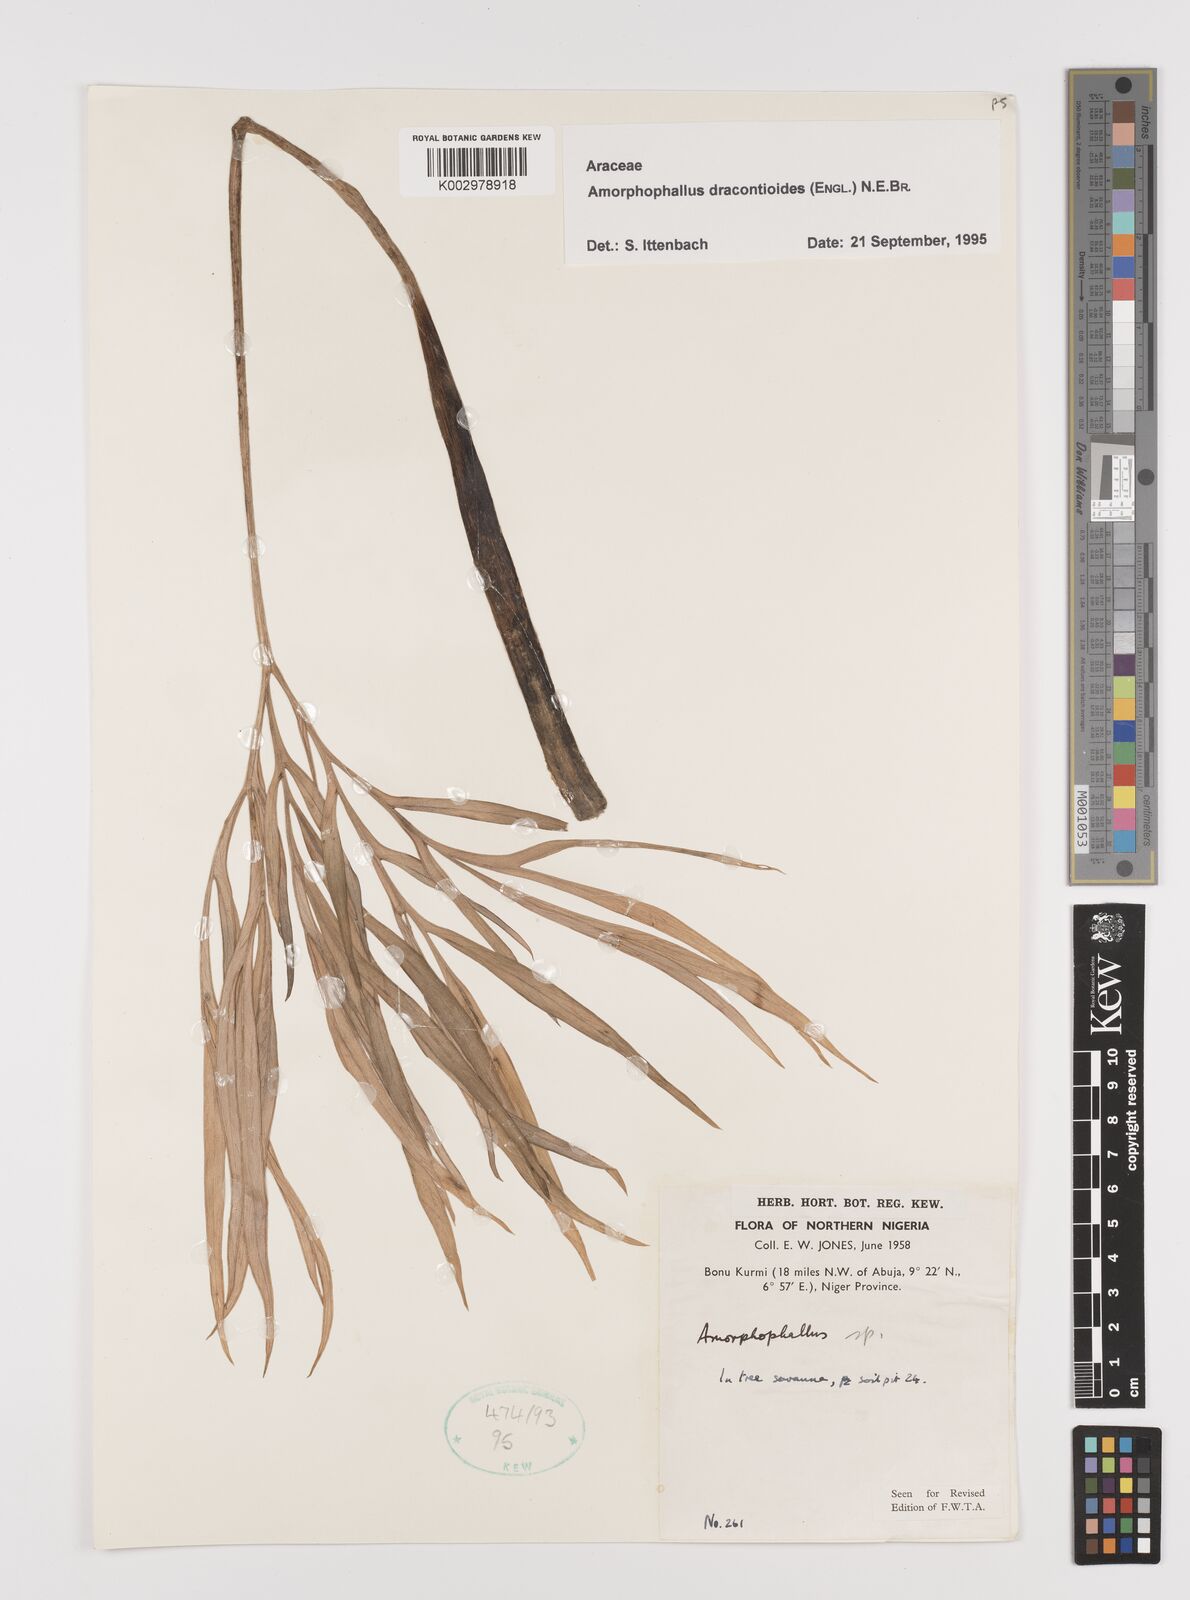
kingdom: Plantae
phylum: Tracheophyta
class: Liliopsida
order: Alismatales
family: Araceae
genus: Amorphophallus
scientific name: Amorphophallus dracontioides
